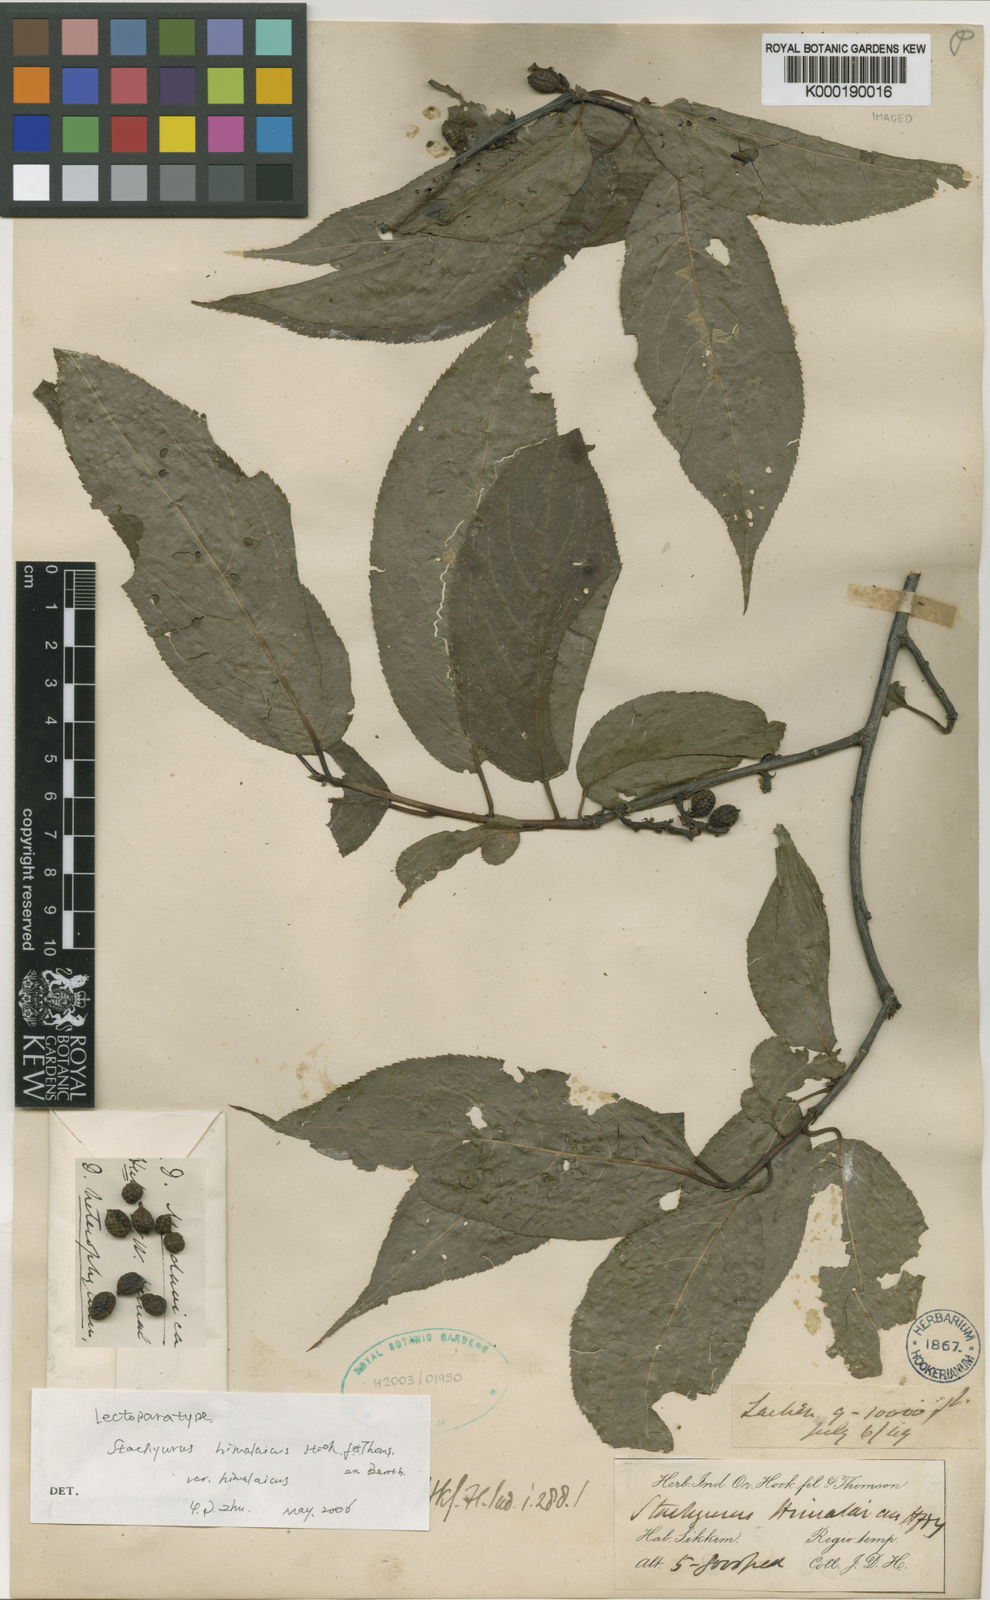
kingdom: Plantae
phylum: Tracheophyta
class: Magnoliopsida
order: Crossosomatales
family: Stachyuraceae
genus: Stachyurus
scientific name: Stachyurus himalaicus
